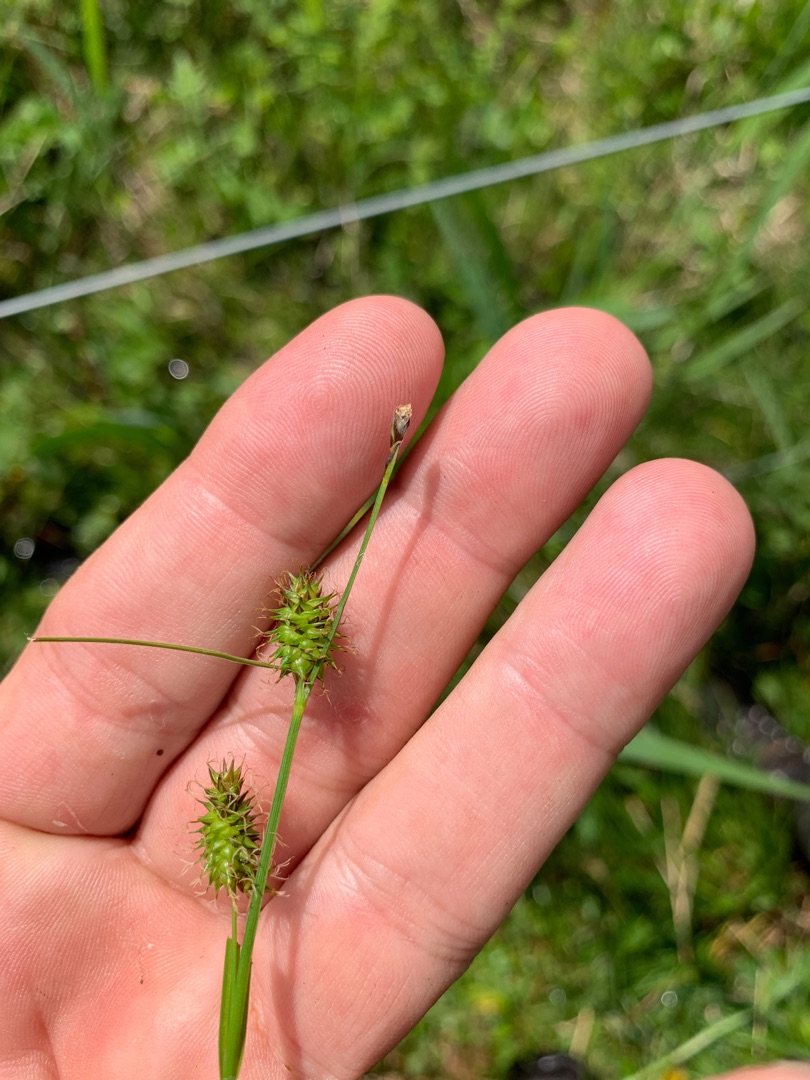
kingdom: Plantae
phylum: Tracheophyta
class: Liliopsida
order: Poales
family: Cyperaceae
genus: Carex
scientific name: Carex lepidocarpa
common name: Krognæb-star
